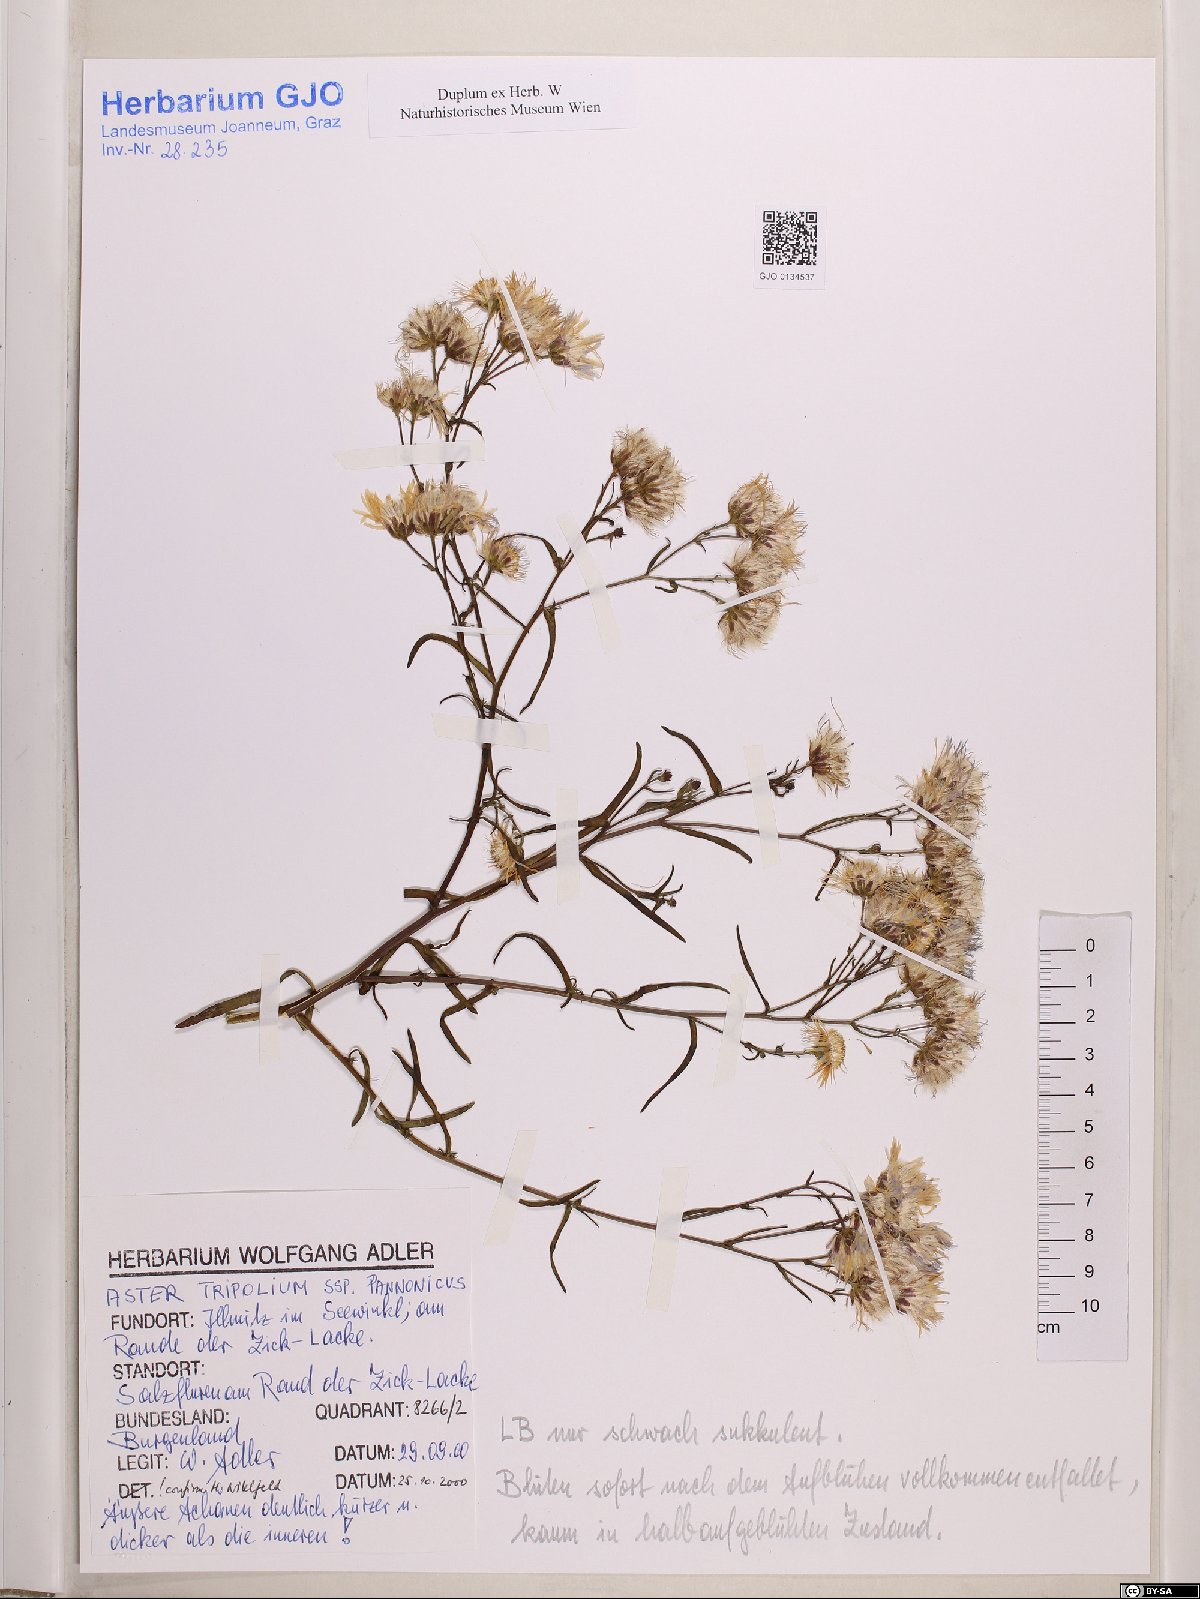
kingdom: Plantae
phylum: Tracheophyta
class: Magnoliopsida
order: Asterales
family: Asteraceae
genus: Tripolium
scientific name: Tripolium pannonicum
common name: Sea aster
